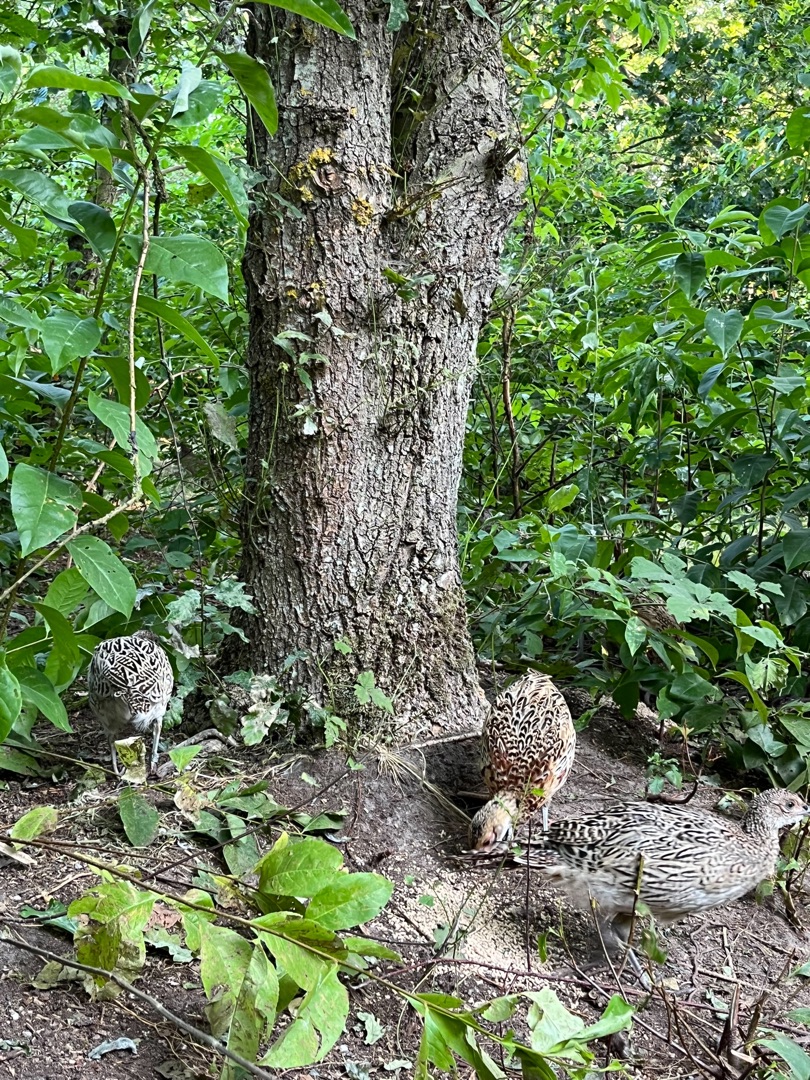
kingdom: Animalia
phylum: Chordata
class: Aves
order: Galliformes
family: Phasianidae
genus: Phasianus
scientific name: Phasianus colchicus
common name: Fasan
